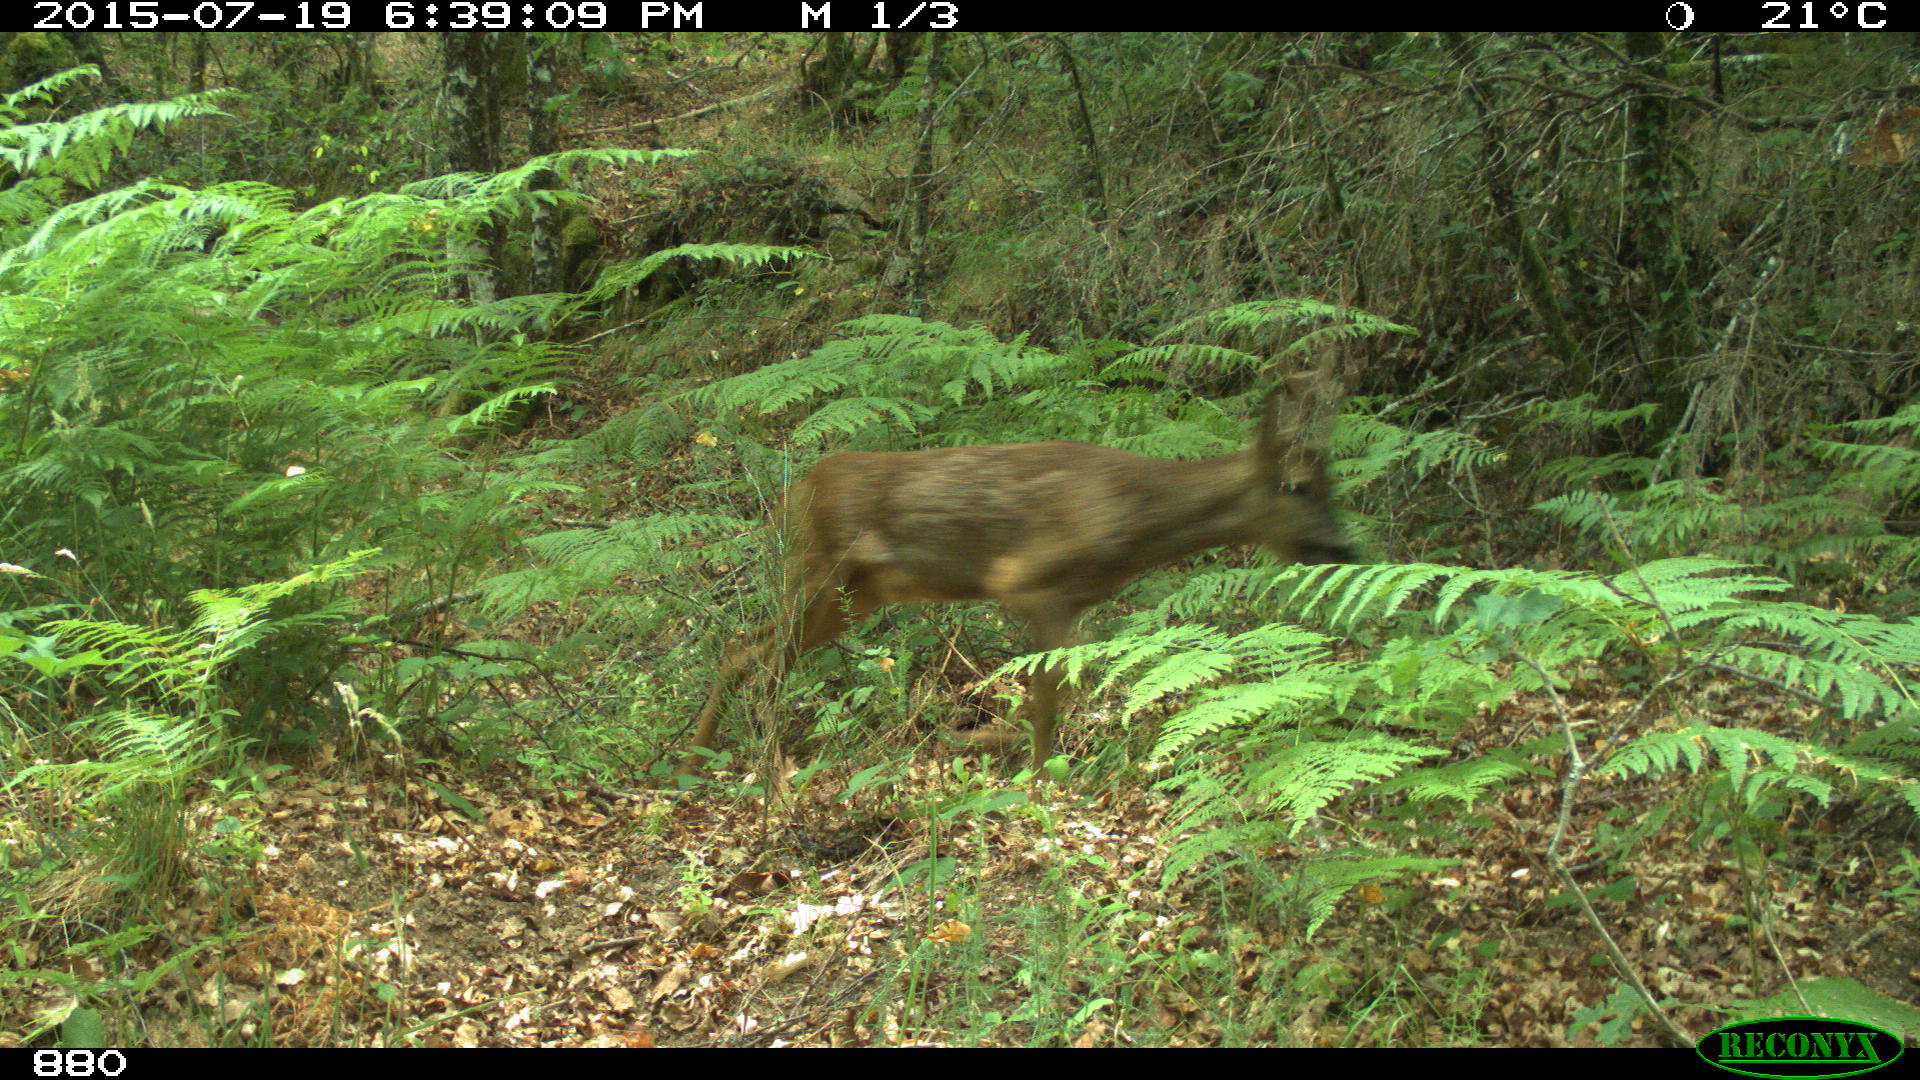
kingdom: Animalia
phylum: Chordata
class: Mammalia
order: Artiodactyla
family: Cervidae
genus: Capreolus
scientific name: Capreolus capreolus
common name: Western roe deer
